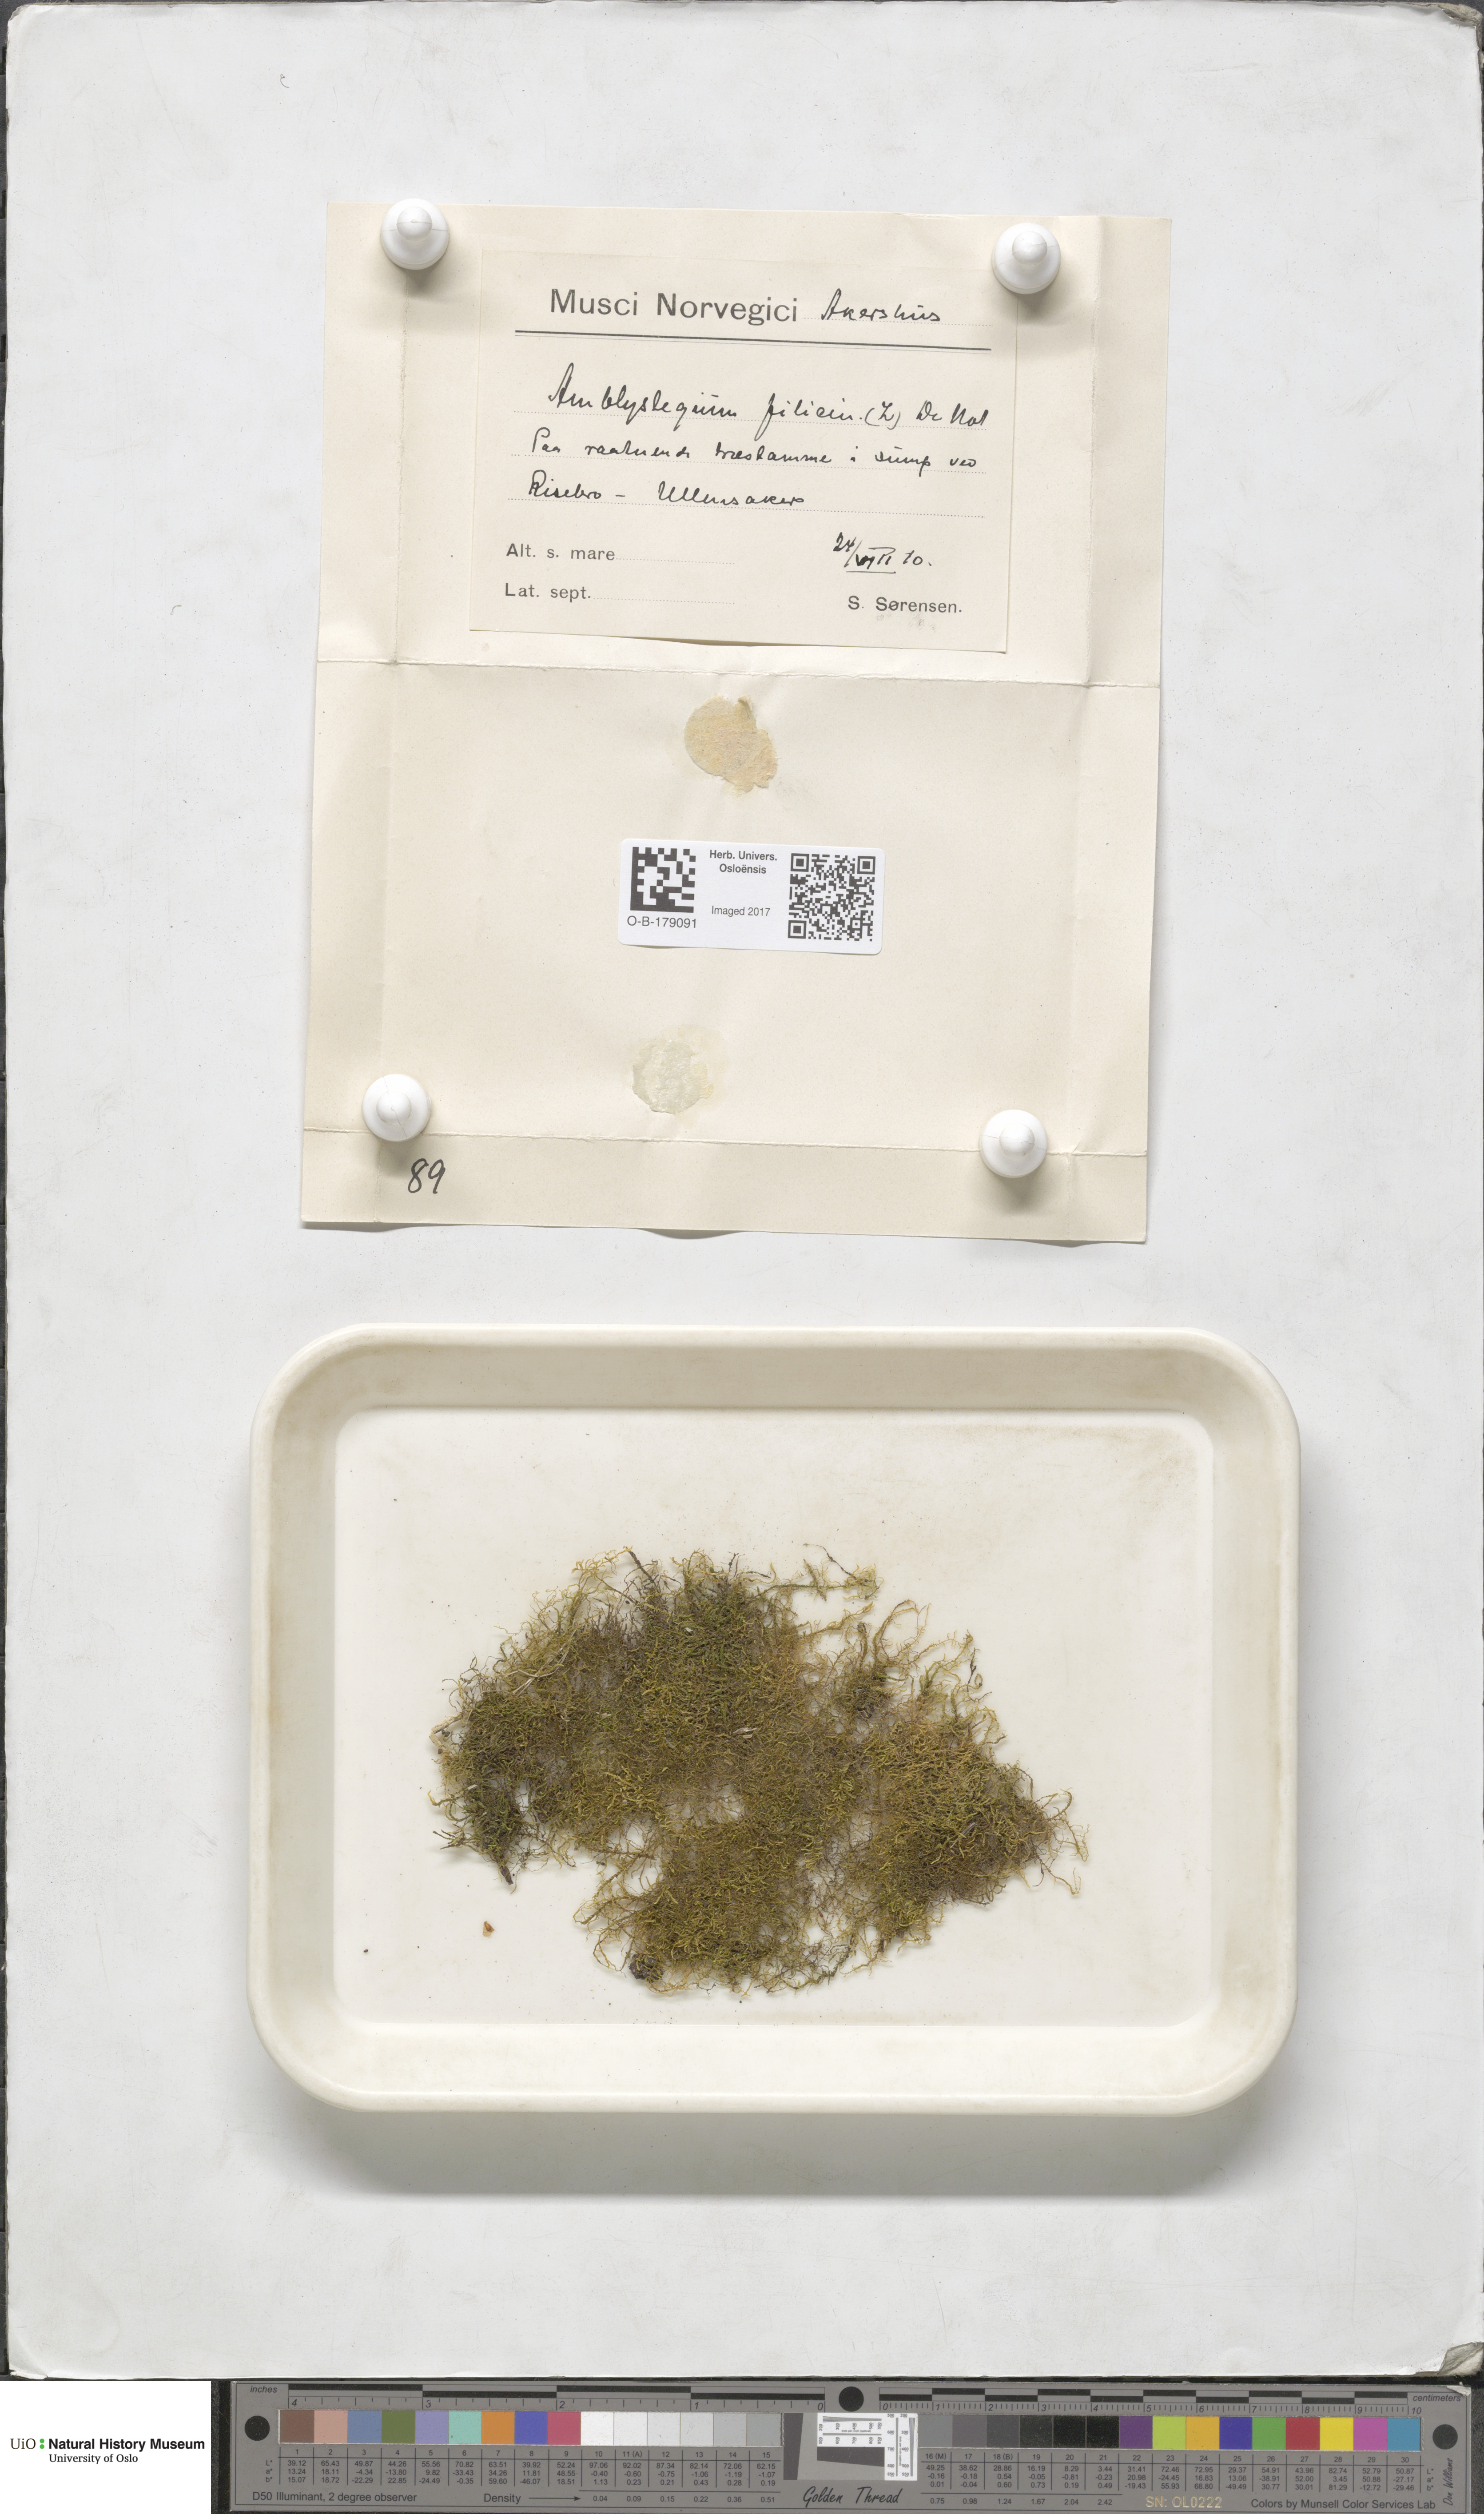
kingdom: Plantae
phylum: Bryophyta
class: Bryopsida
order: Hypnales
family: Amblystegiaceae
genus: Cratoneuron
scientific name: Cratoneuron filicinum
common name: Fern-leaved hook moss
